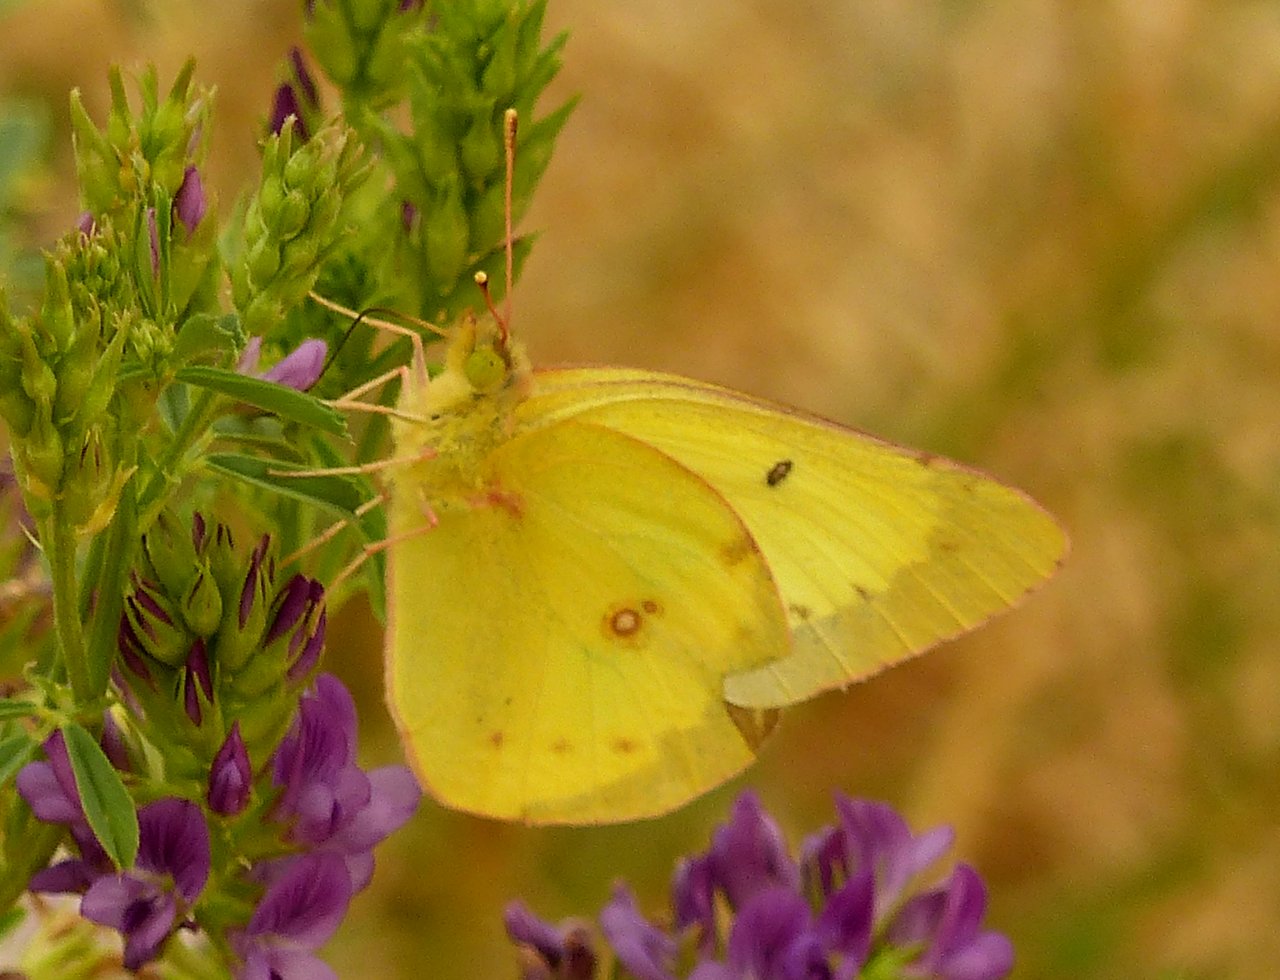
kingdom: Animalia
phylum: Arthropoda
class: Insecta
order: Lepidoptera
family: Pieridae
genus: Colias
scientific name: Colias philodice
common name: Clouded Sulphur
